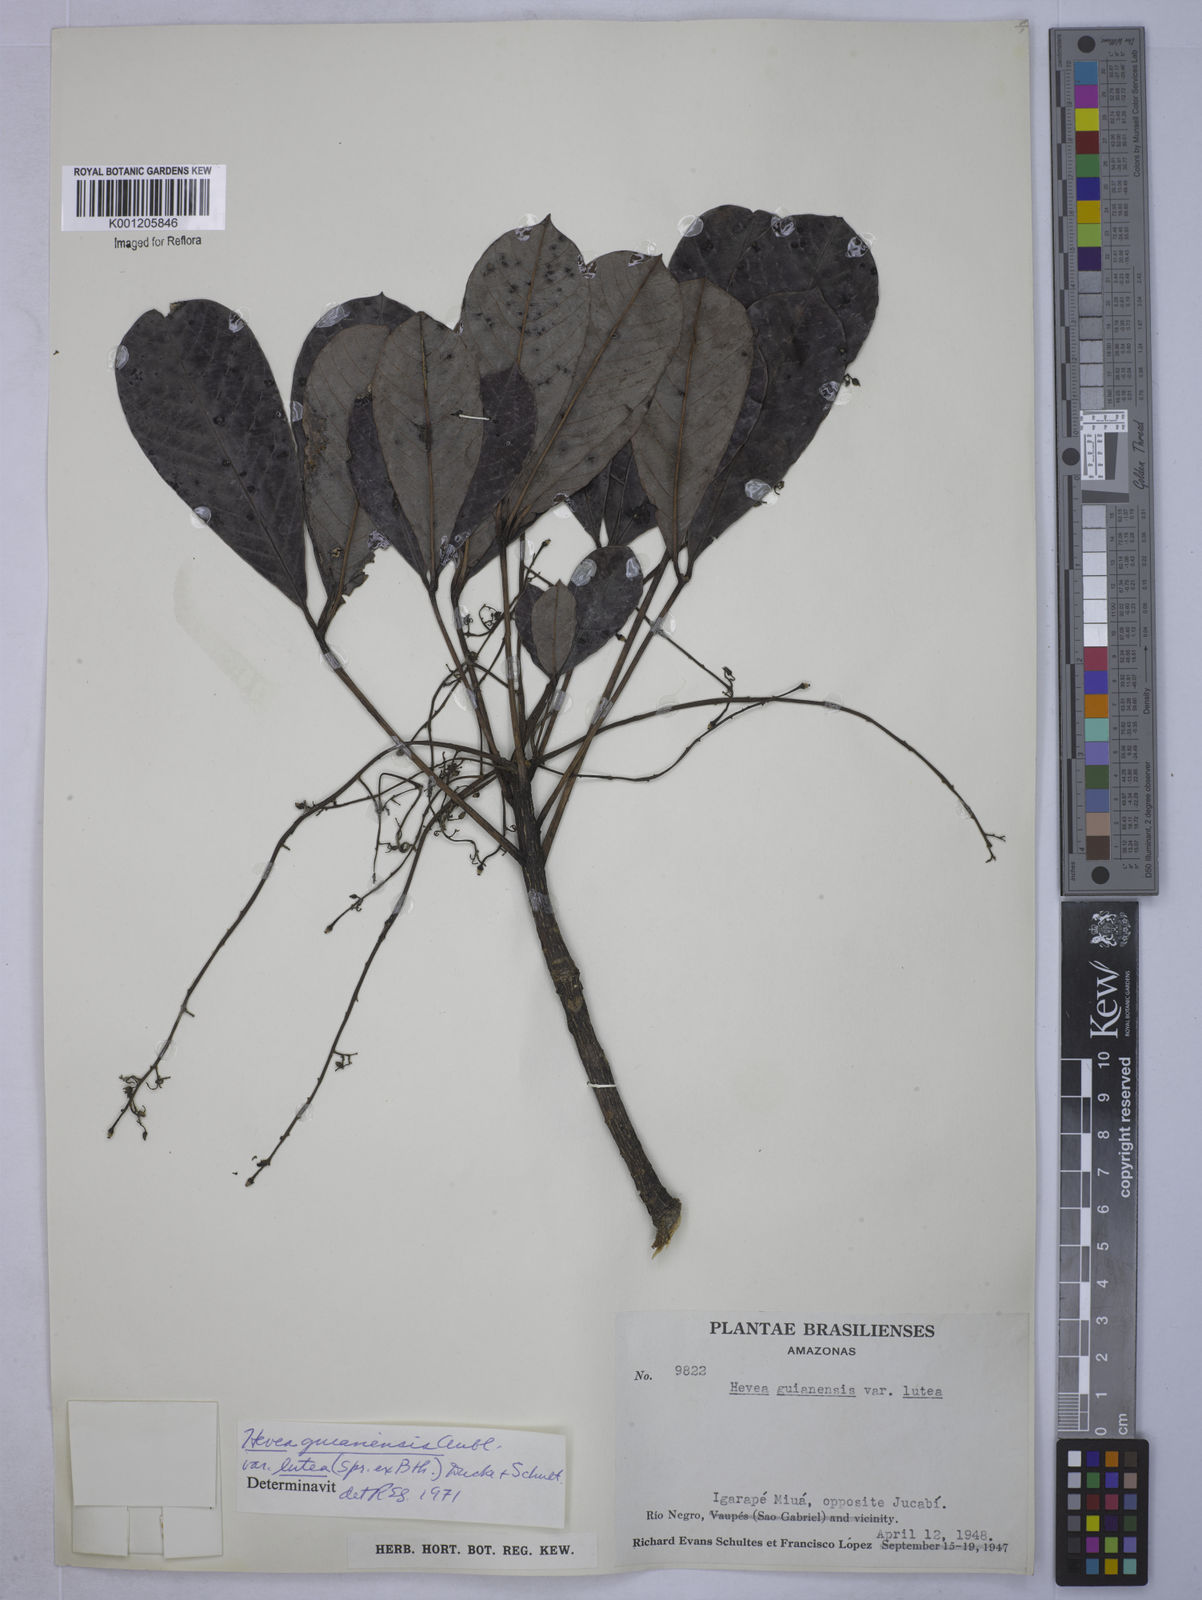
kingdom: Plantae
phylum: Tracheophyta
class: Magnoliopsida
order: Malpighiales
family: Euphorbiaceae
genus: Hevea
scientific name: Hevea guianensis
